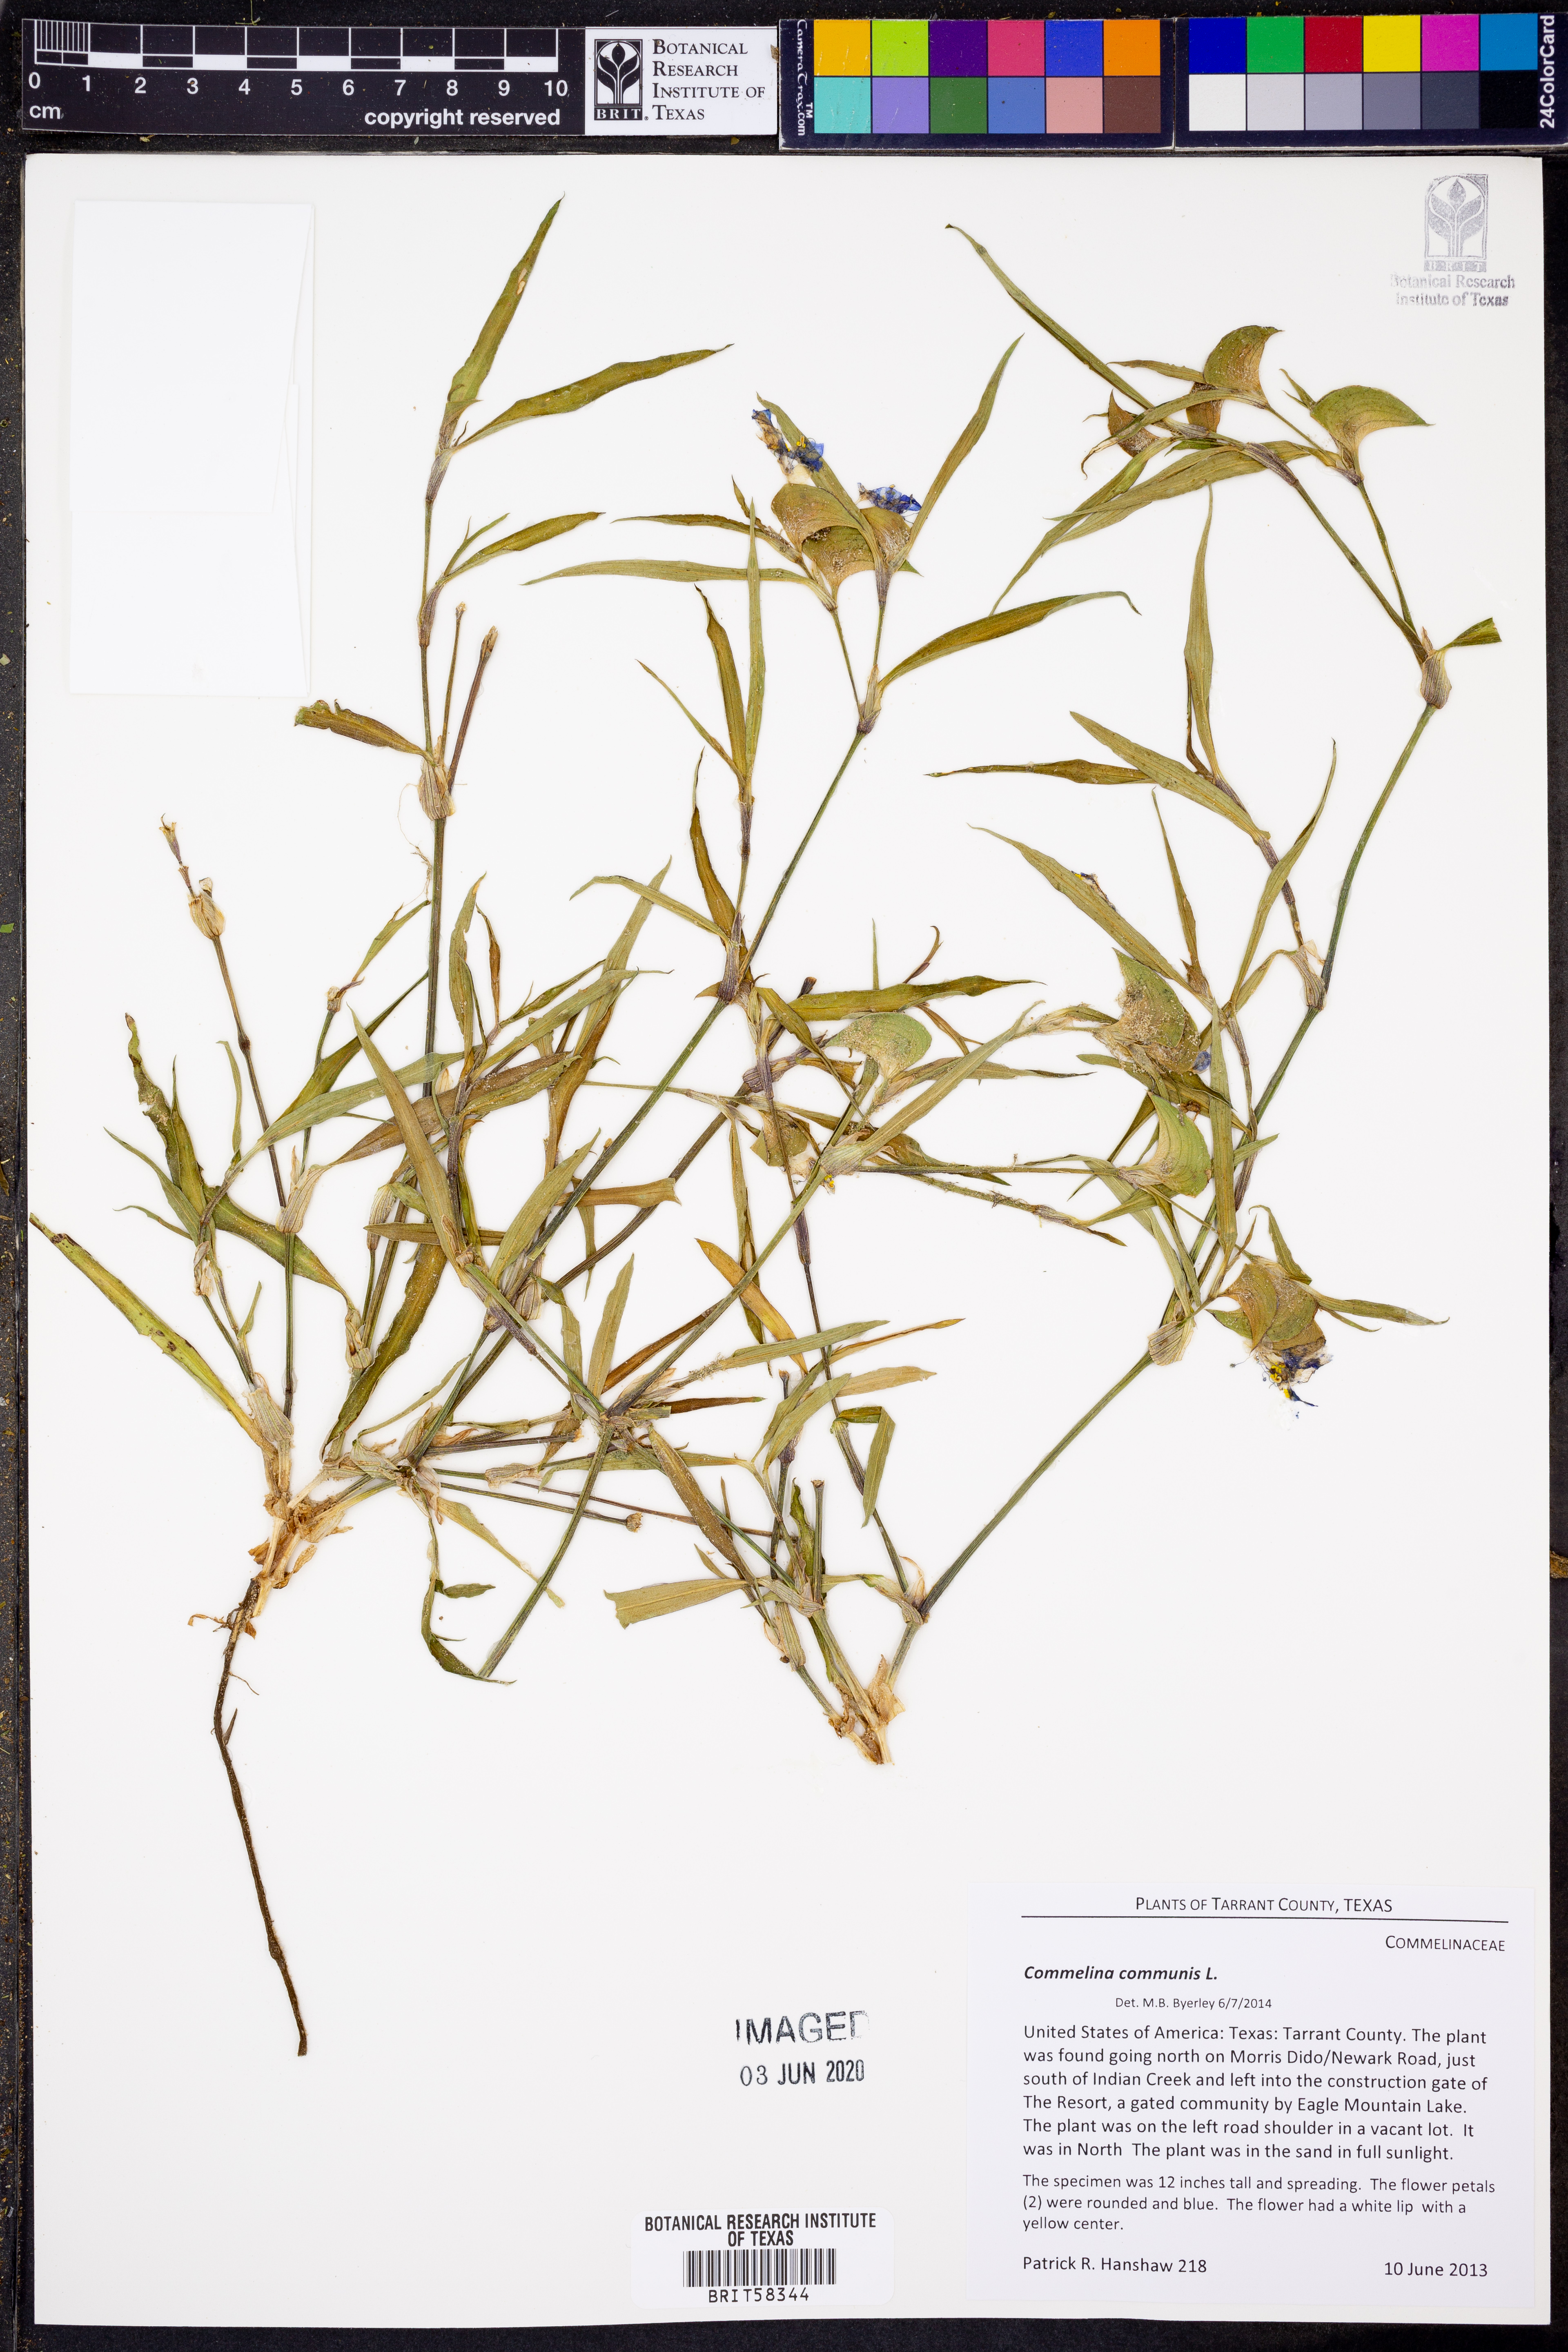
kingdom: Plantae
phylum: Tracheophyta
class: Liliopsida
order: Commelinales
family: Commelinaceae
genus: Commelina
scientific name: Commelina communis
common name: Asiatic dayflower
